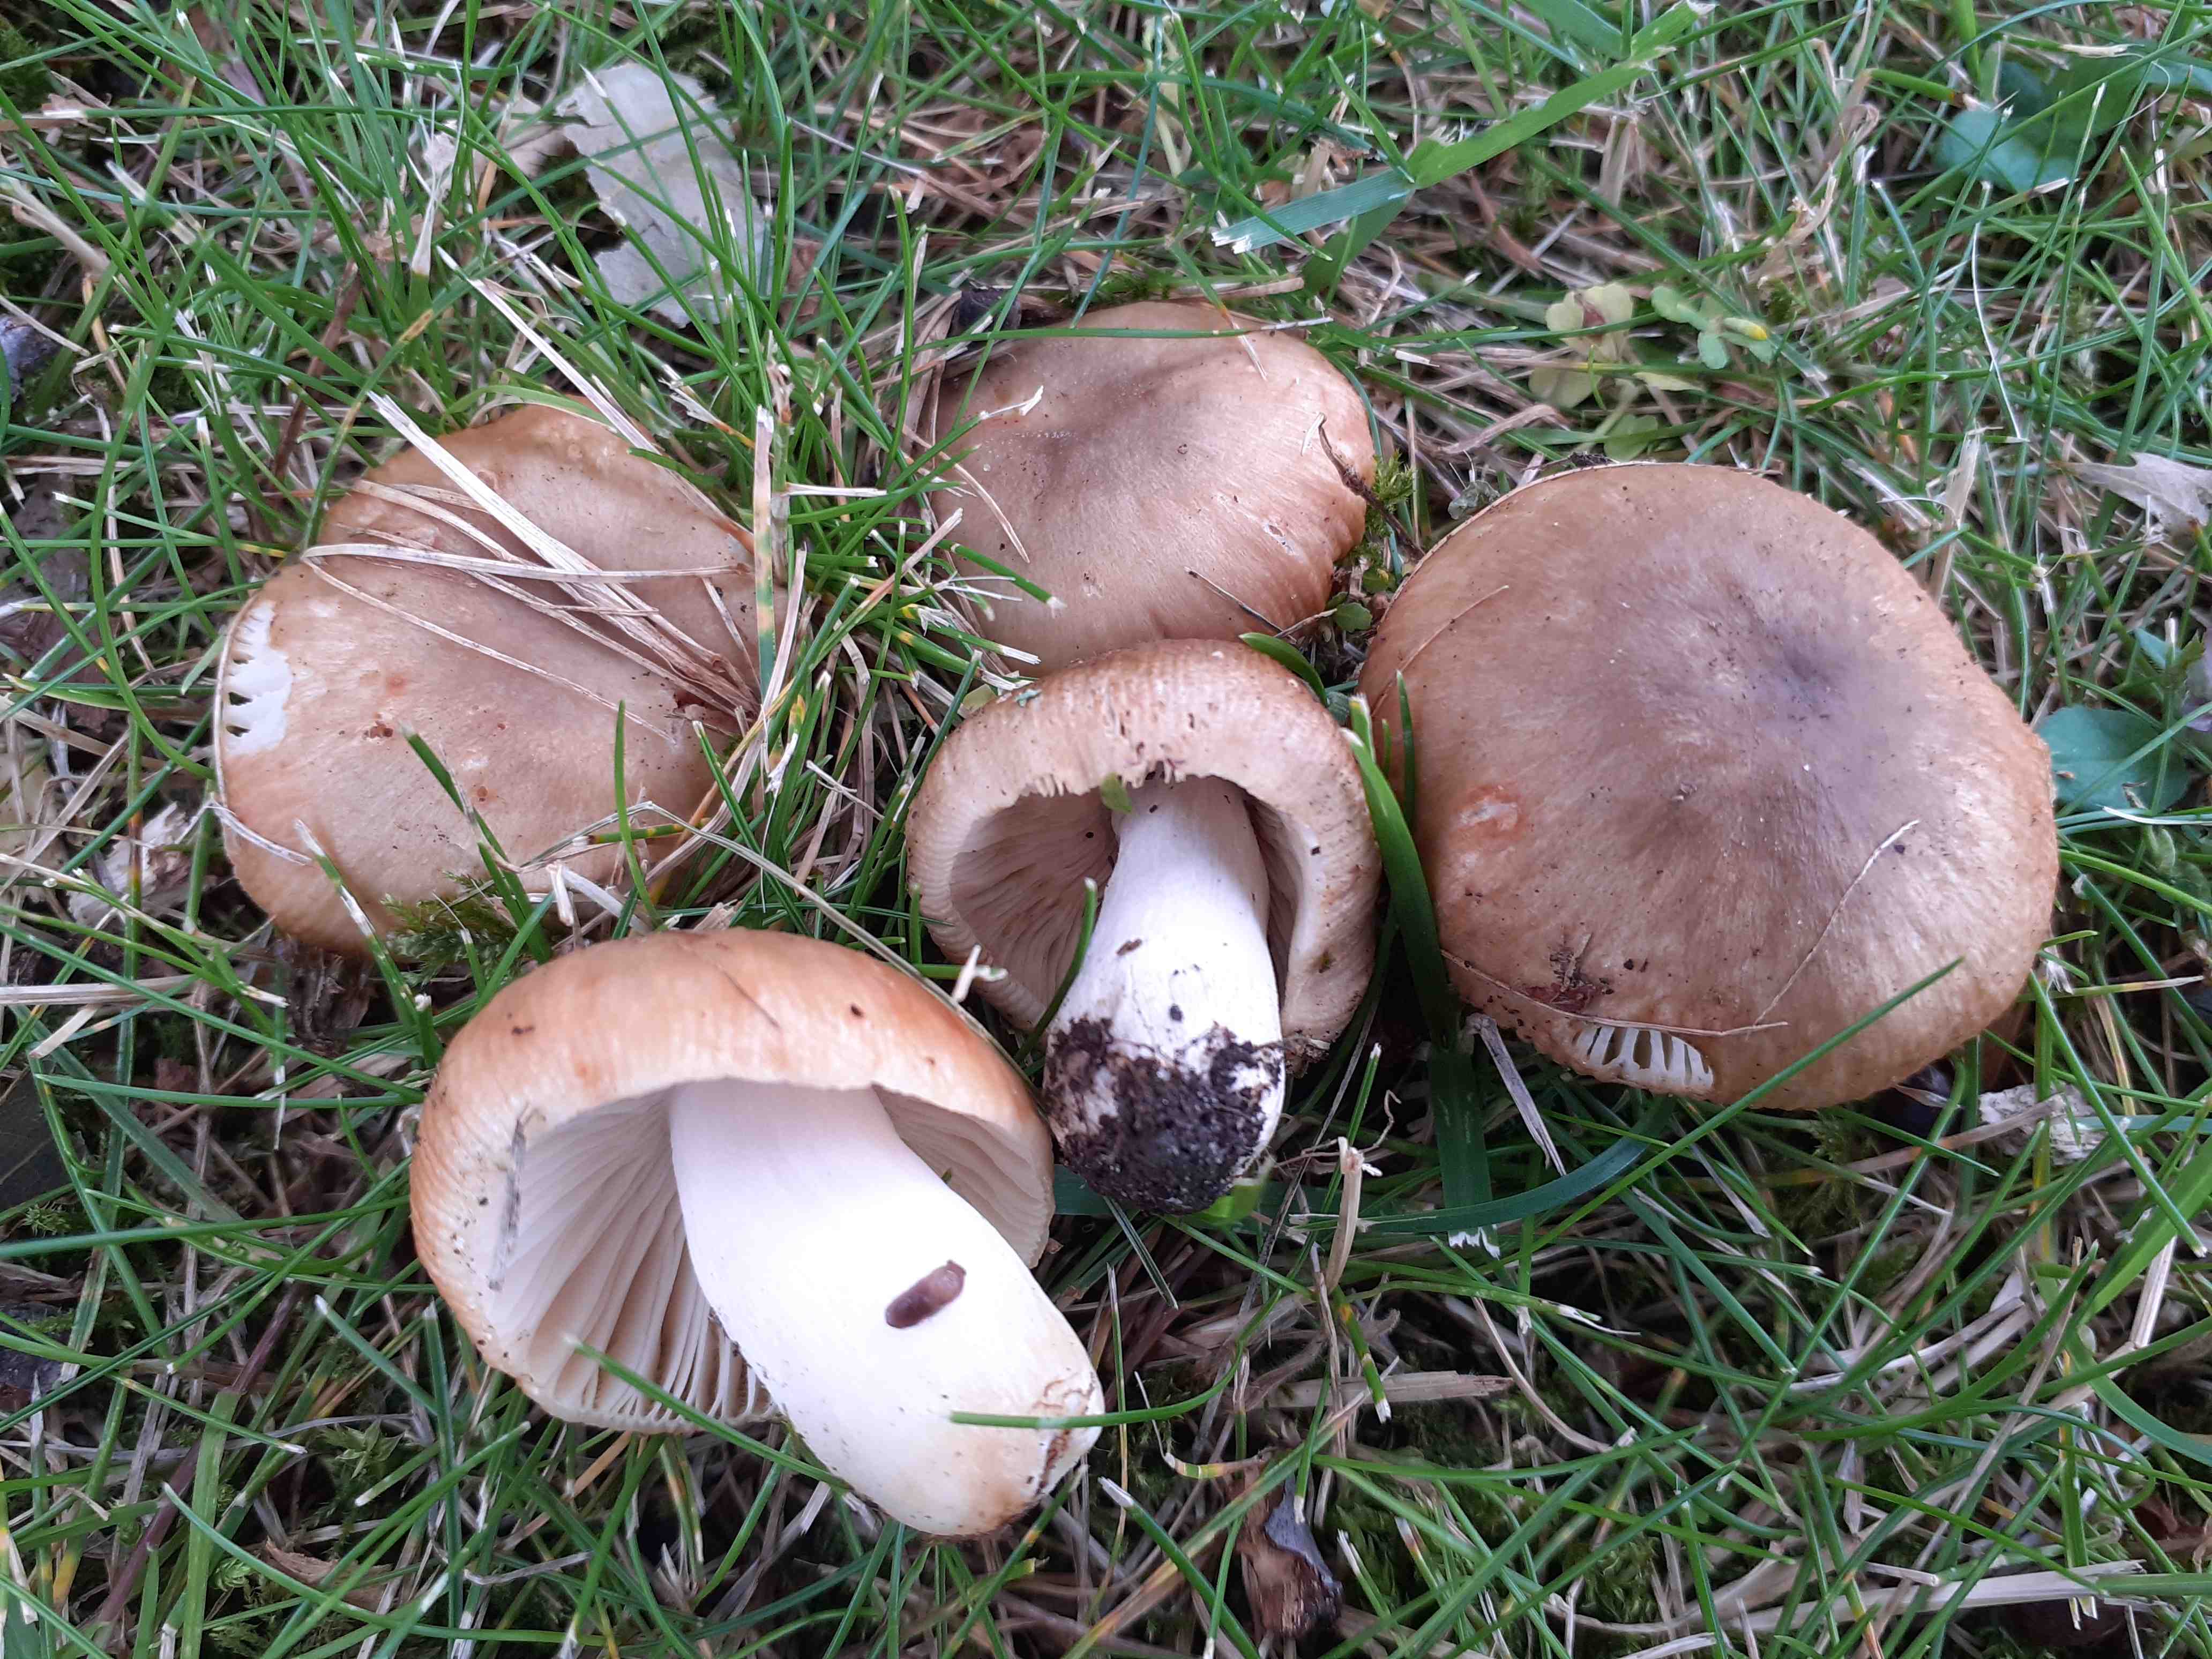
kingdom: Fungi
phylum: Basidiomycota
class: Agaricomycetes
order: Russulales
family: Russulaceae
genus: Russula
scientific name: Russula recondita
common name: mild kam-skørhat
